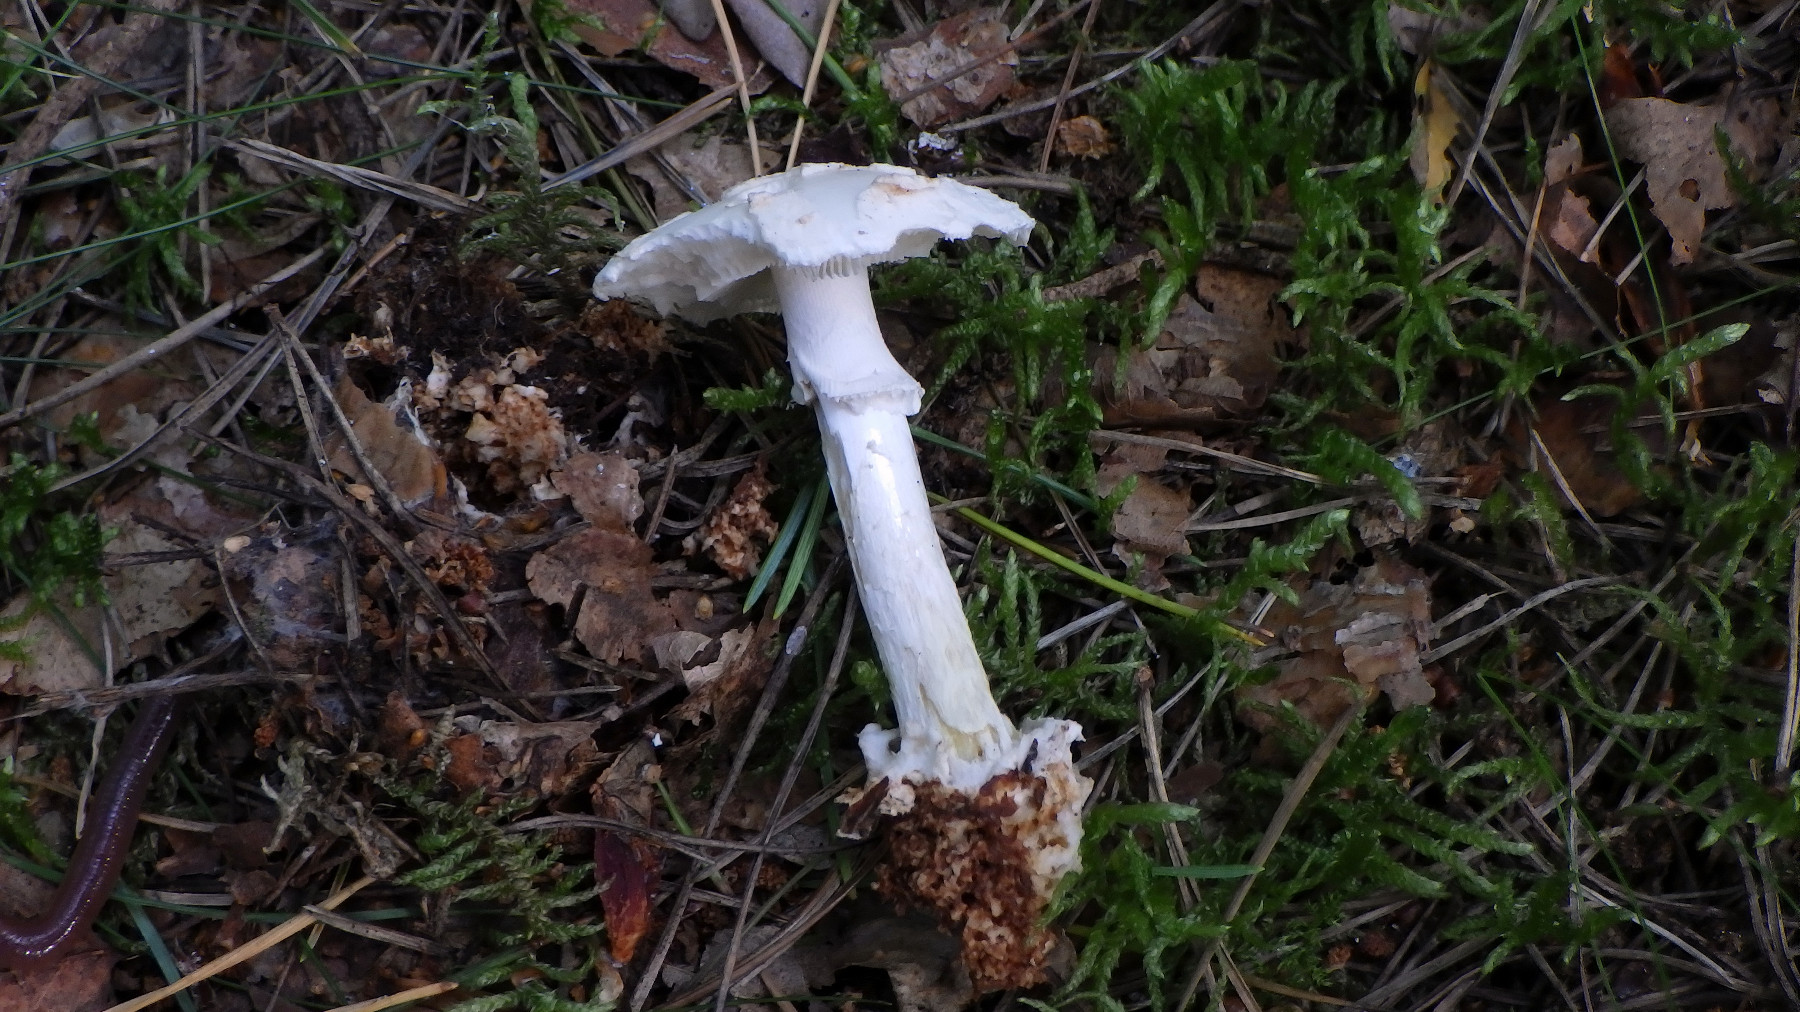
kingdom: Fungi
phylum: Basidiomycota
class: Agaricomycetes
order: Agaricales
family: Amanitaceae
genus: Amanita
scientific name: Amanita citrina
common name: kugleknoldet fluesvamp
